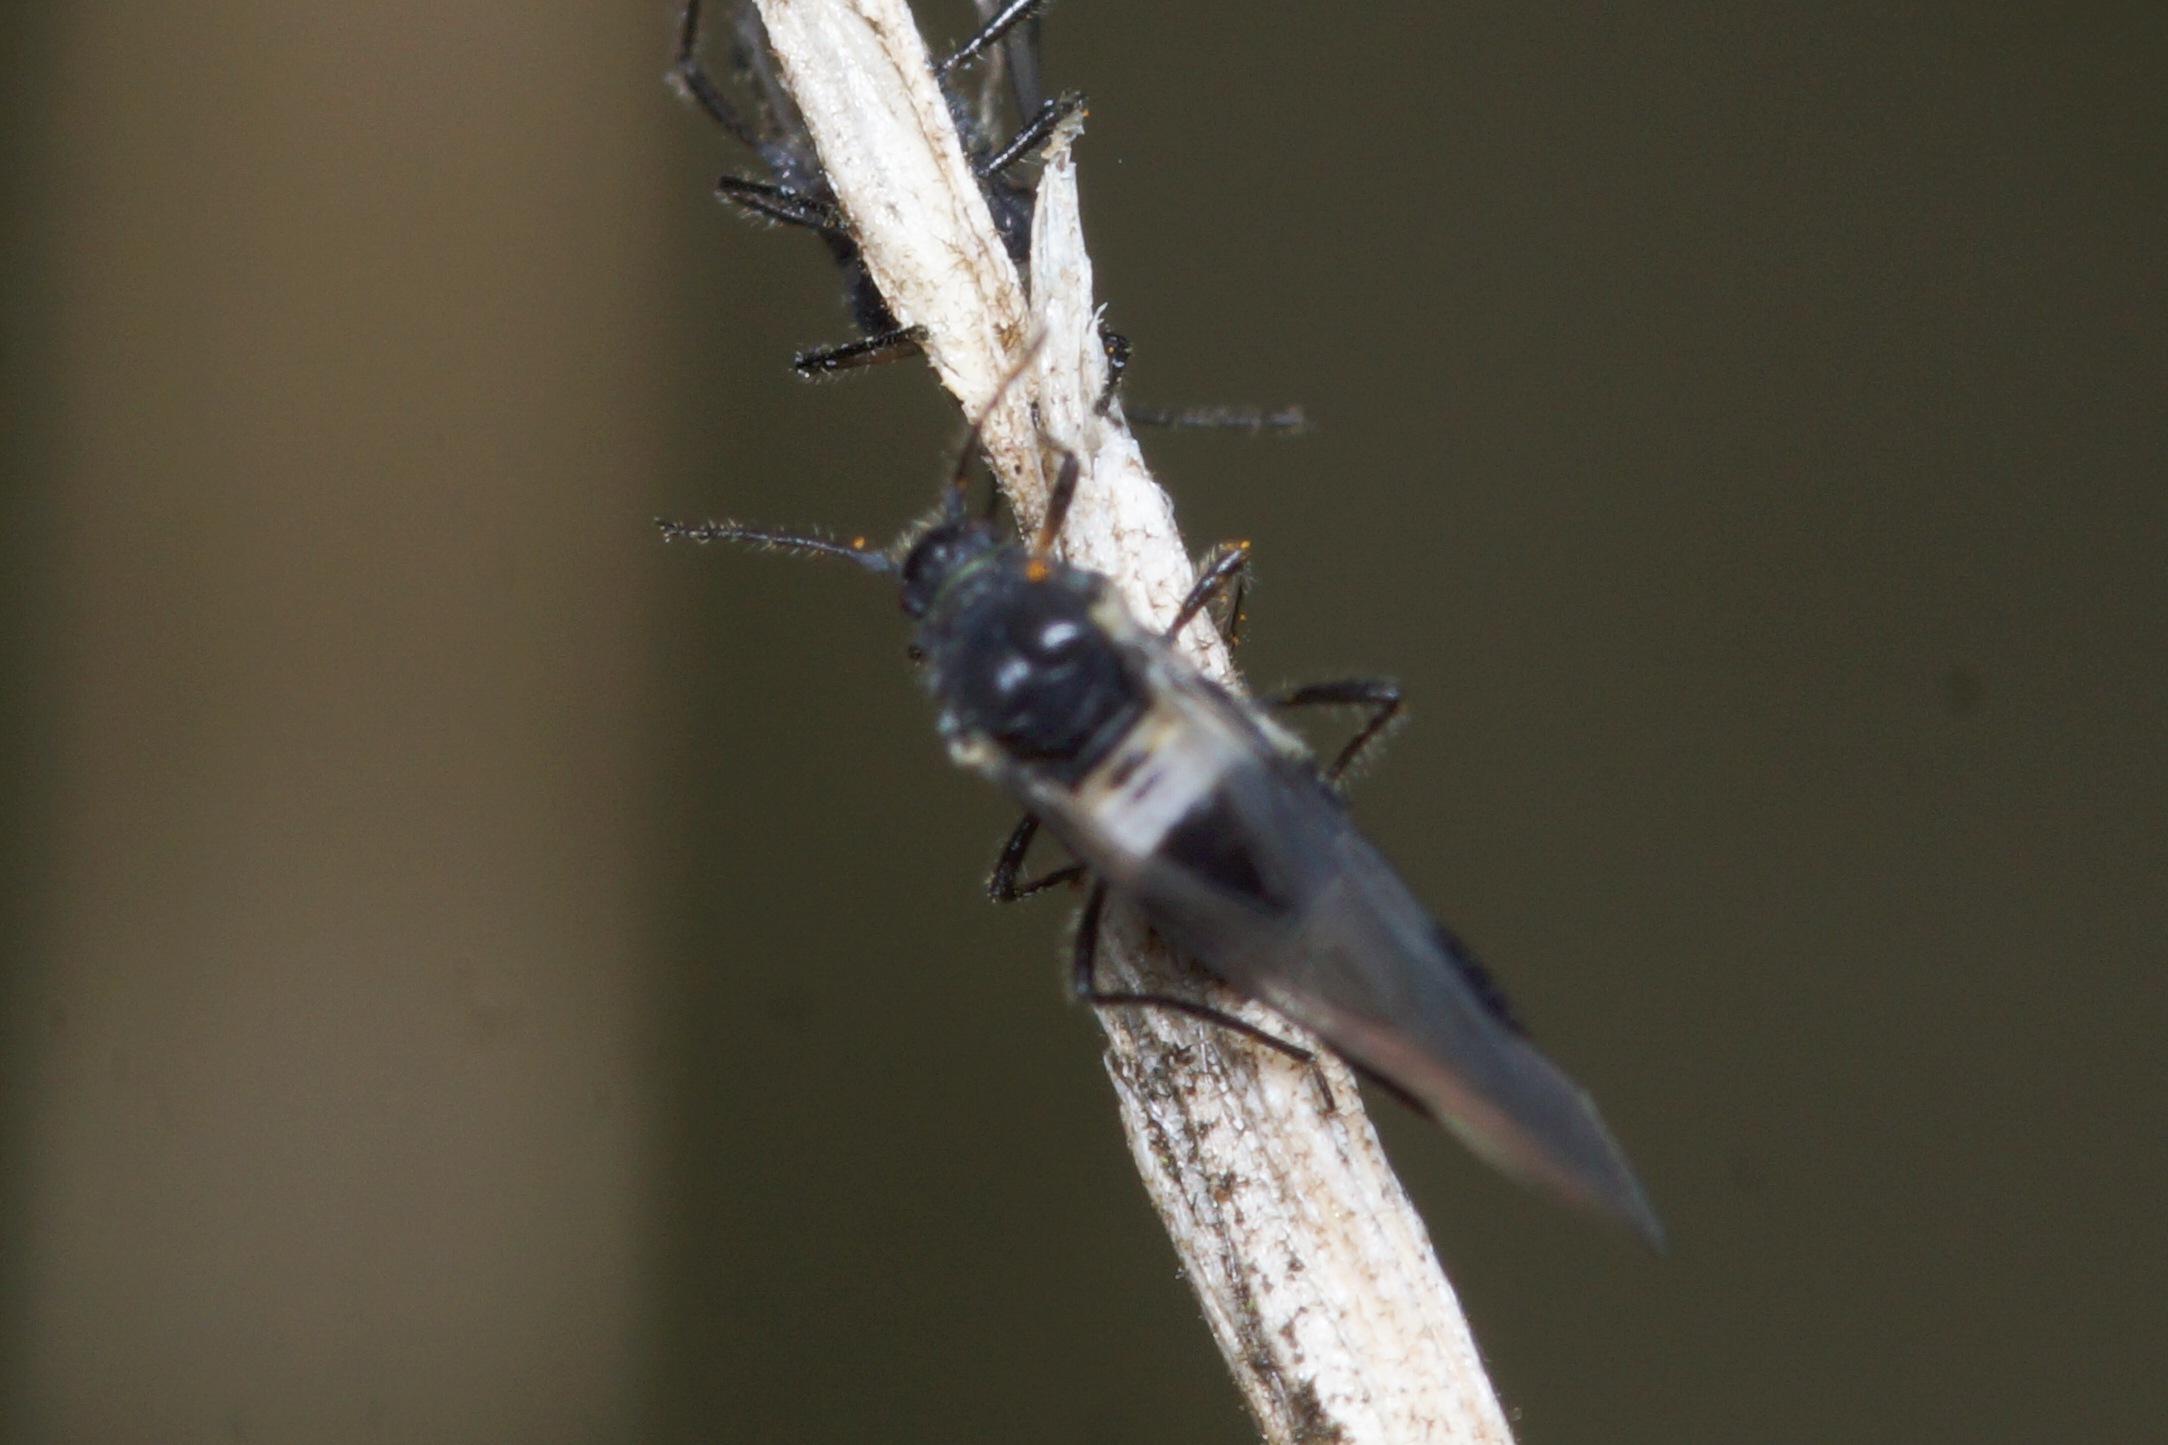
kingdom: Animalia
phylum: Arthropoda
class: Insecta
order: Hemiptera
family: Aphididae
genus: Anoecia
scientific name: Anoecia corni
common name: Kornelbladlus
